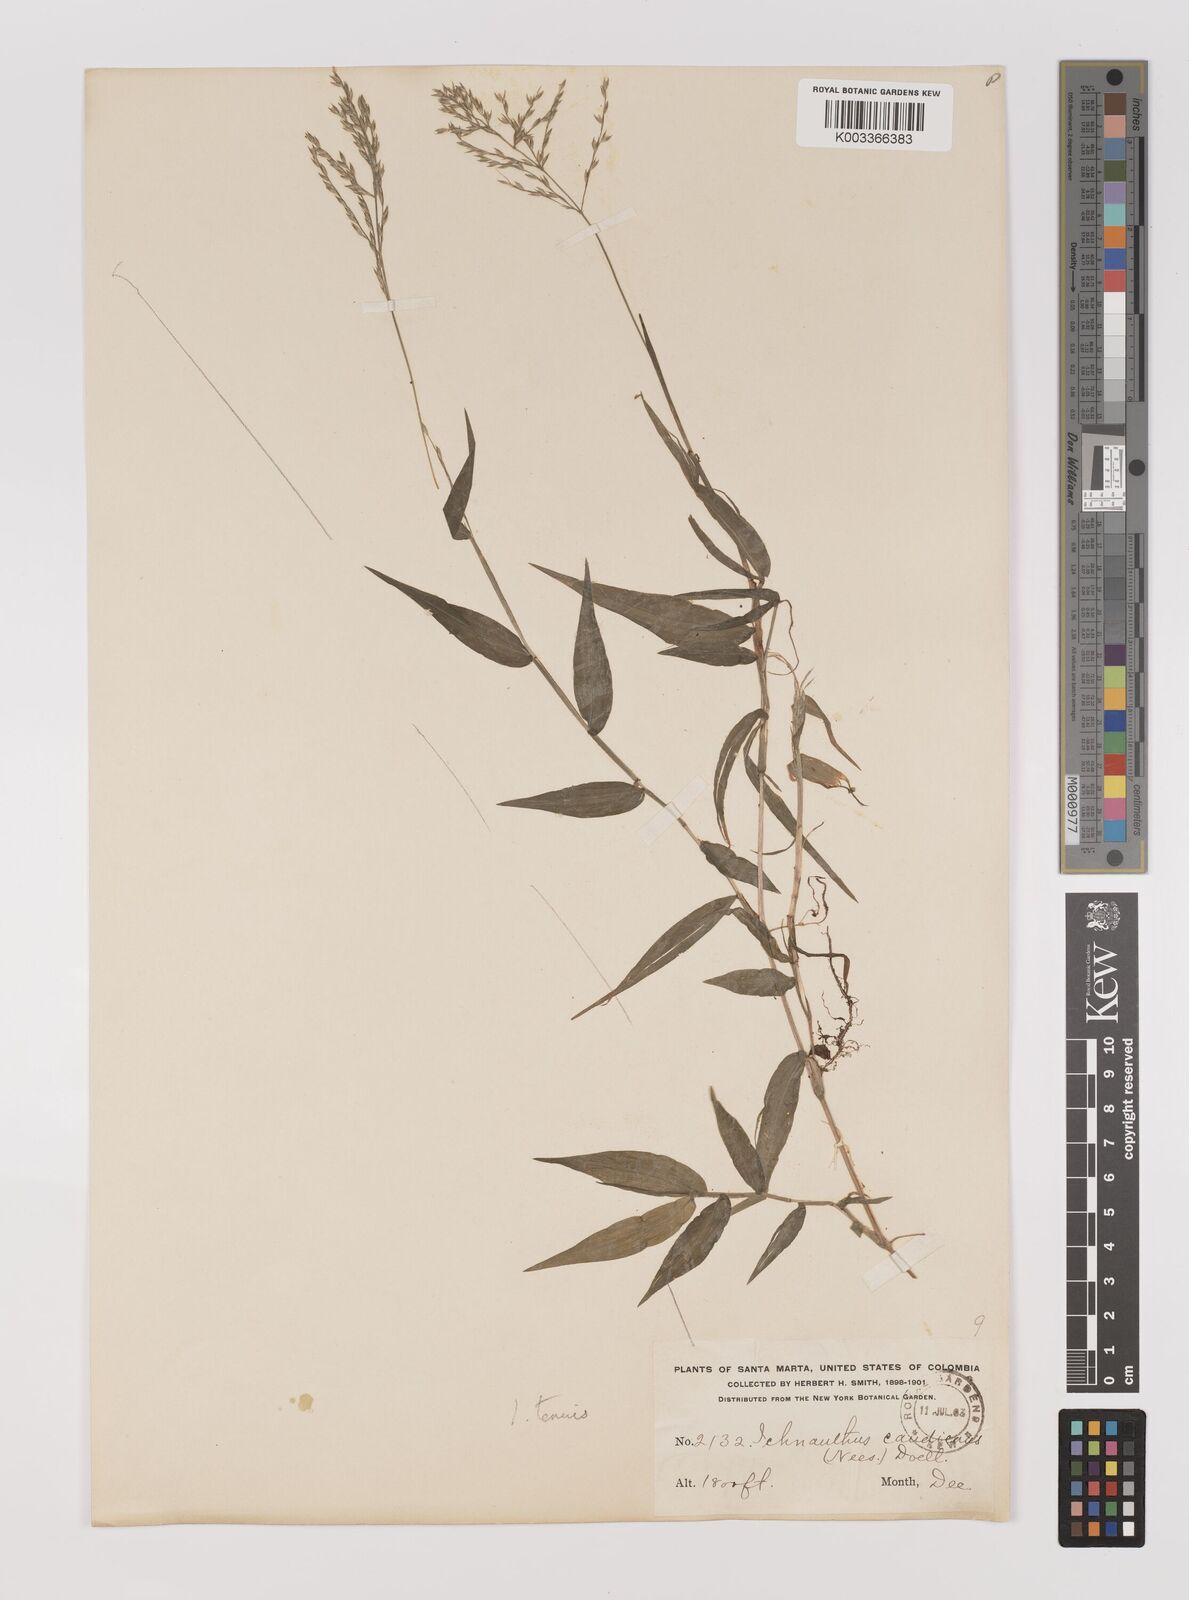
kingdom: Plantae
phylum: Tracheophyta
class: Liliopsida
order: Poales
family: Poaceae
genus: Ichnanthus
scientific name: Ichnanthus tenuis
